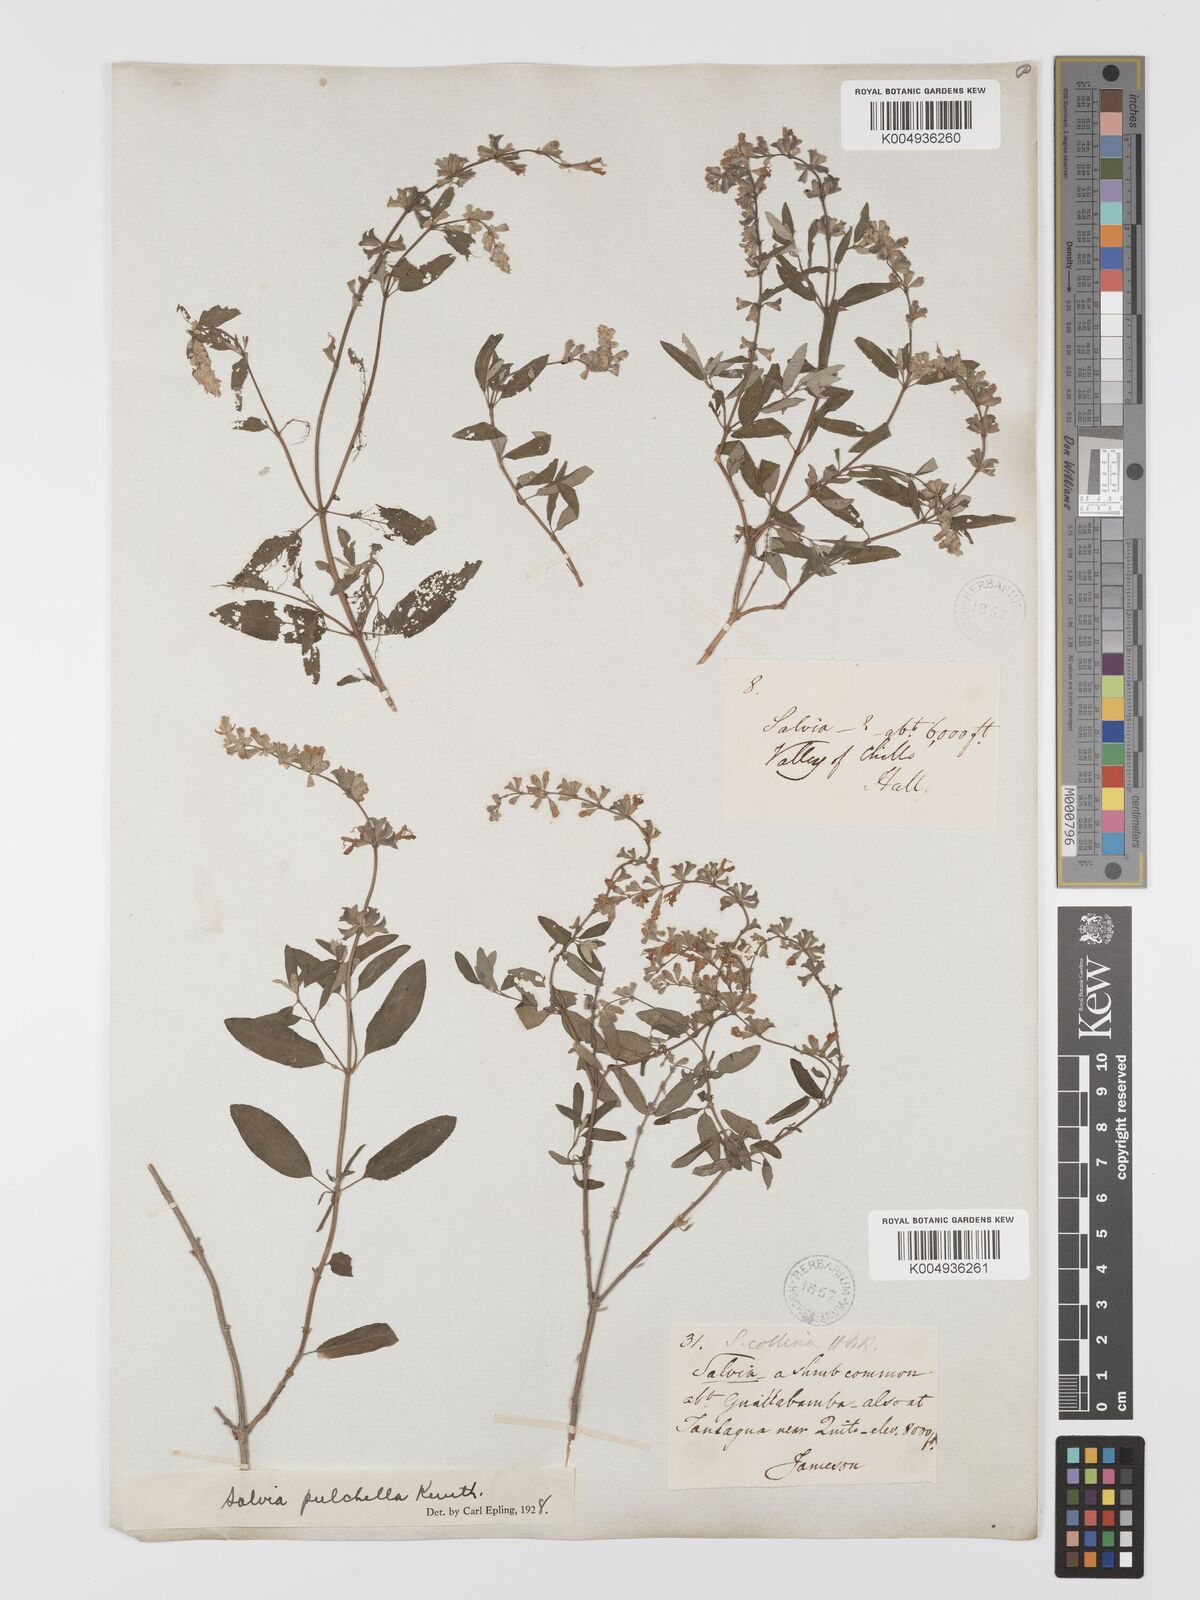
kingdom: Plantae
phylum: Tracheophyta
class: Magnoliopsida
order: Lamiales
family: Lamiaceae
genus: Salvia
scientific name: Salvia
